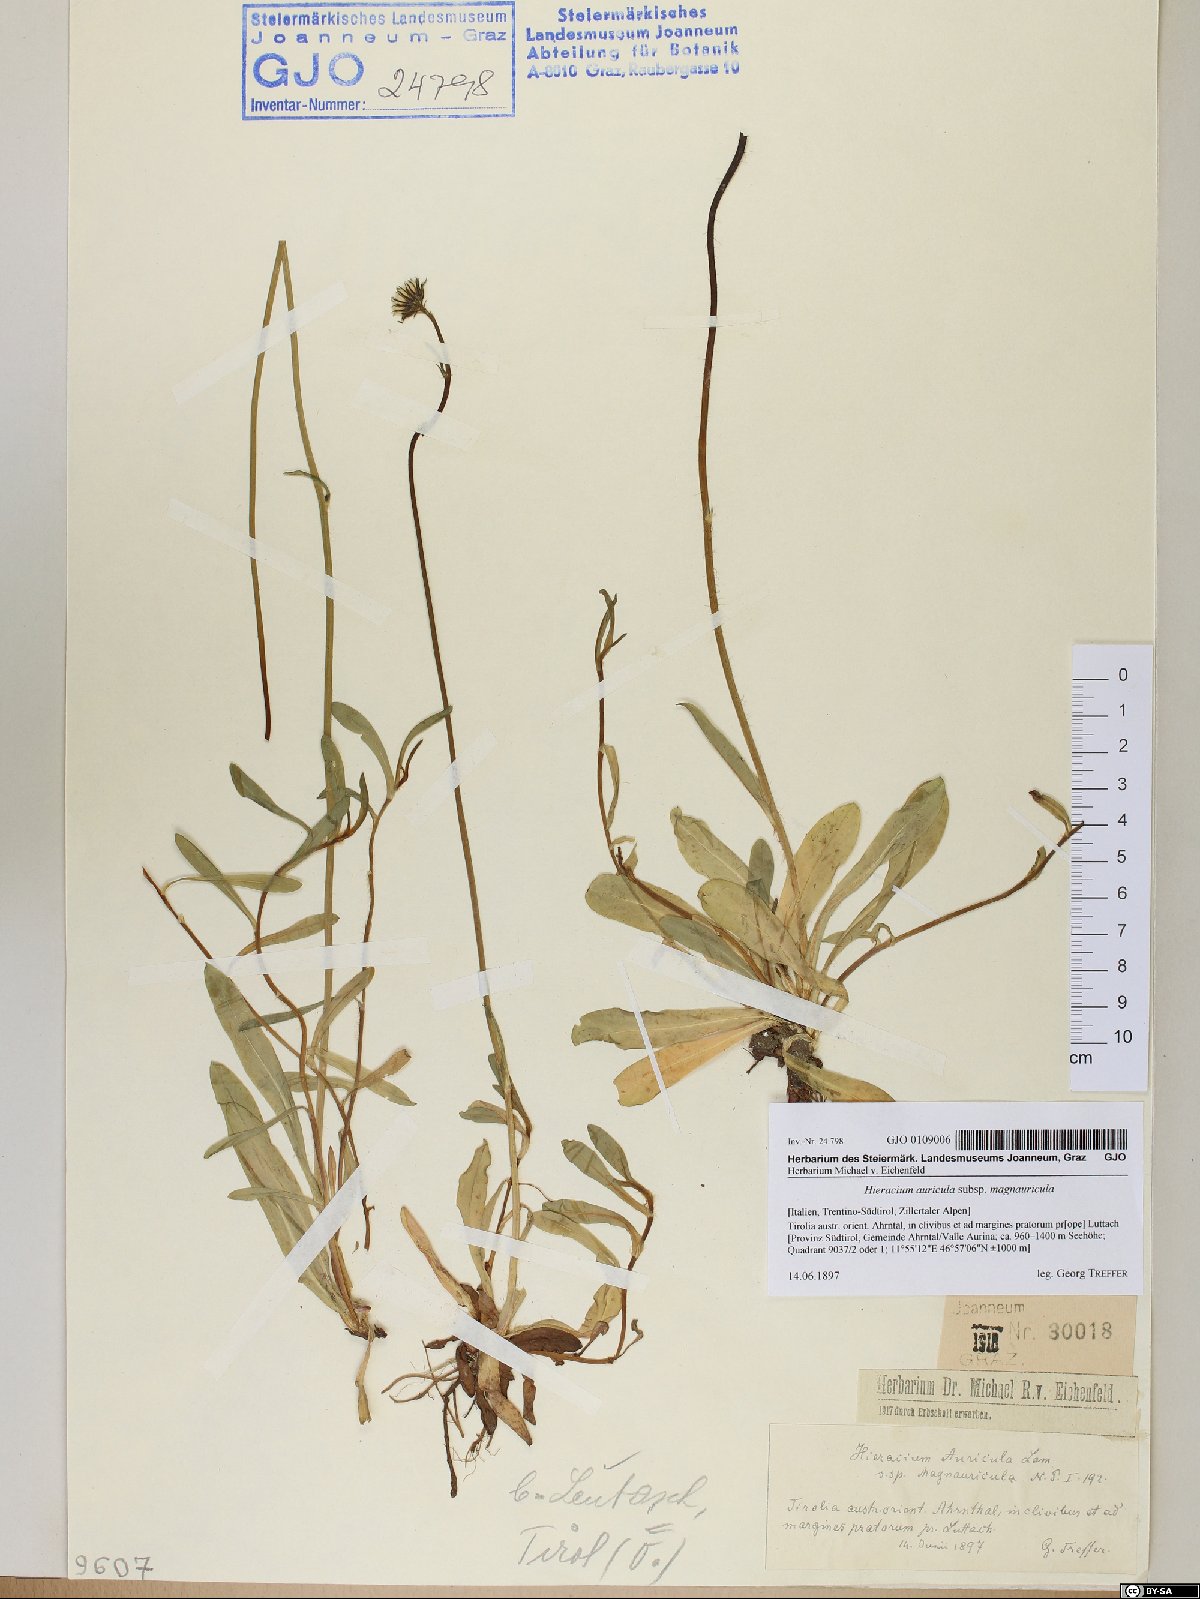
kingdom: Plantae
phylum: Tracheophyta
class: Magnoliopsida
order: Asterales
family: Asteraceae
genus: Pilosella
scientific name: Pilosella lactucella
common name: Glaucous fox-and-cubs
